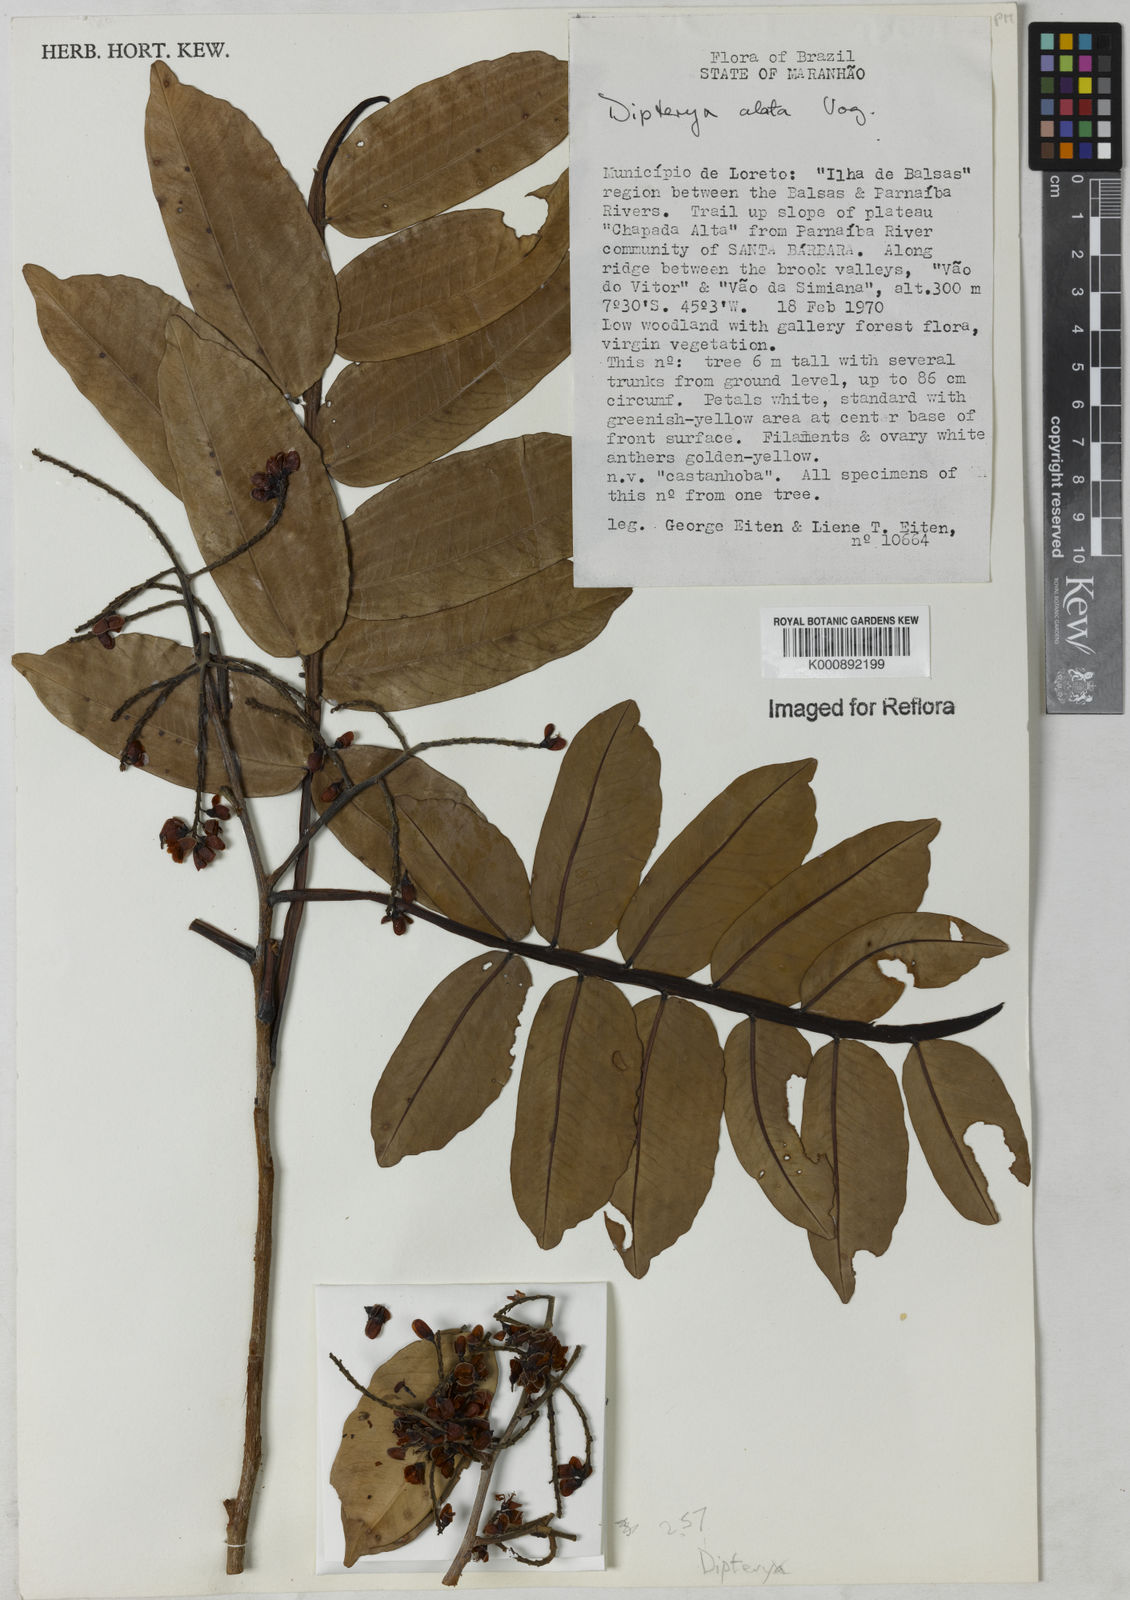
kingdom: Plantae
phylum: Tracheophyta
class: Magnoliopsida
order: Fabales
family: Fabaceae
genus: Dipteryx
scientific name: Dipteryx alata
